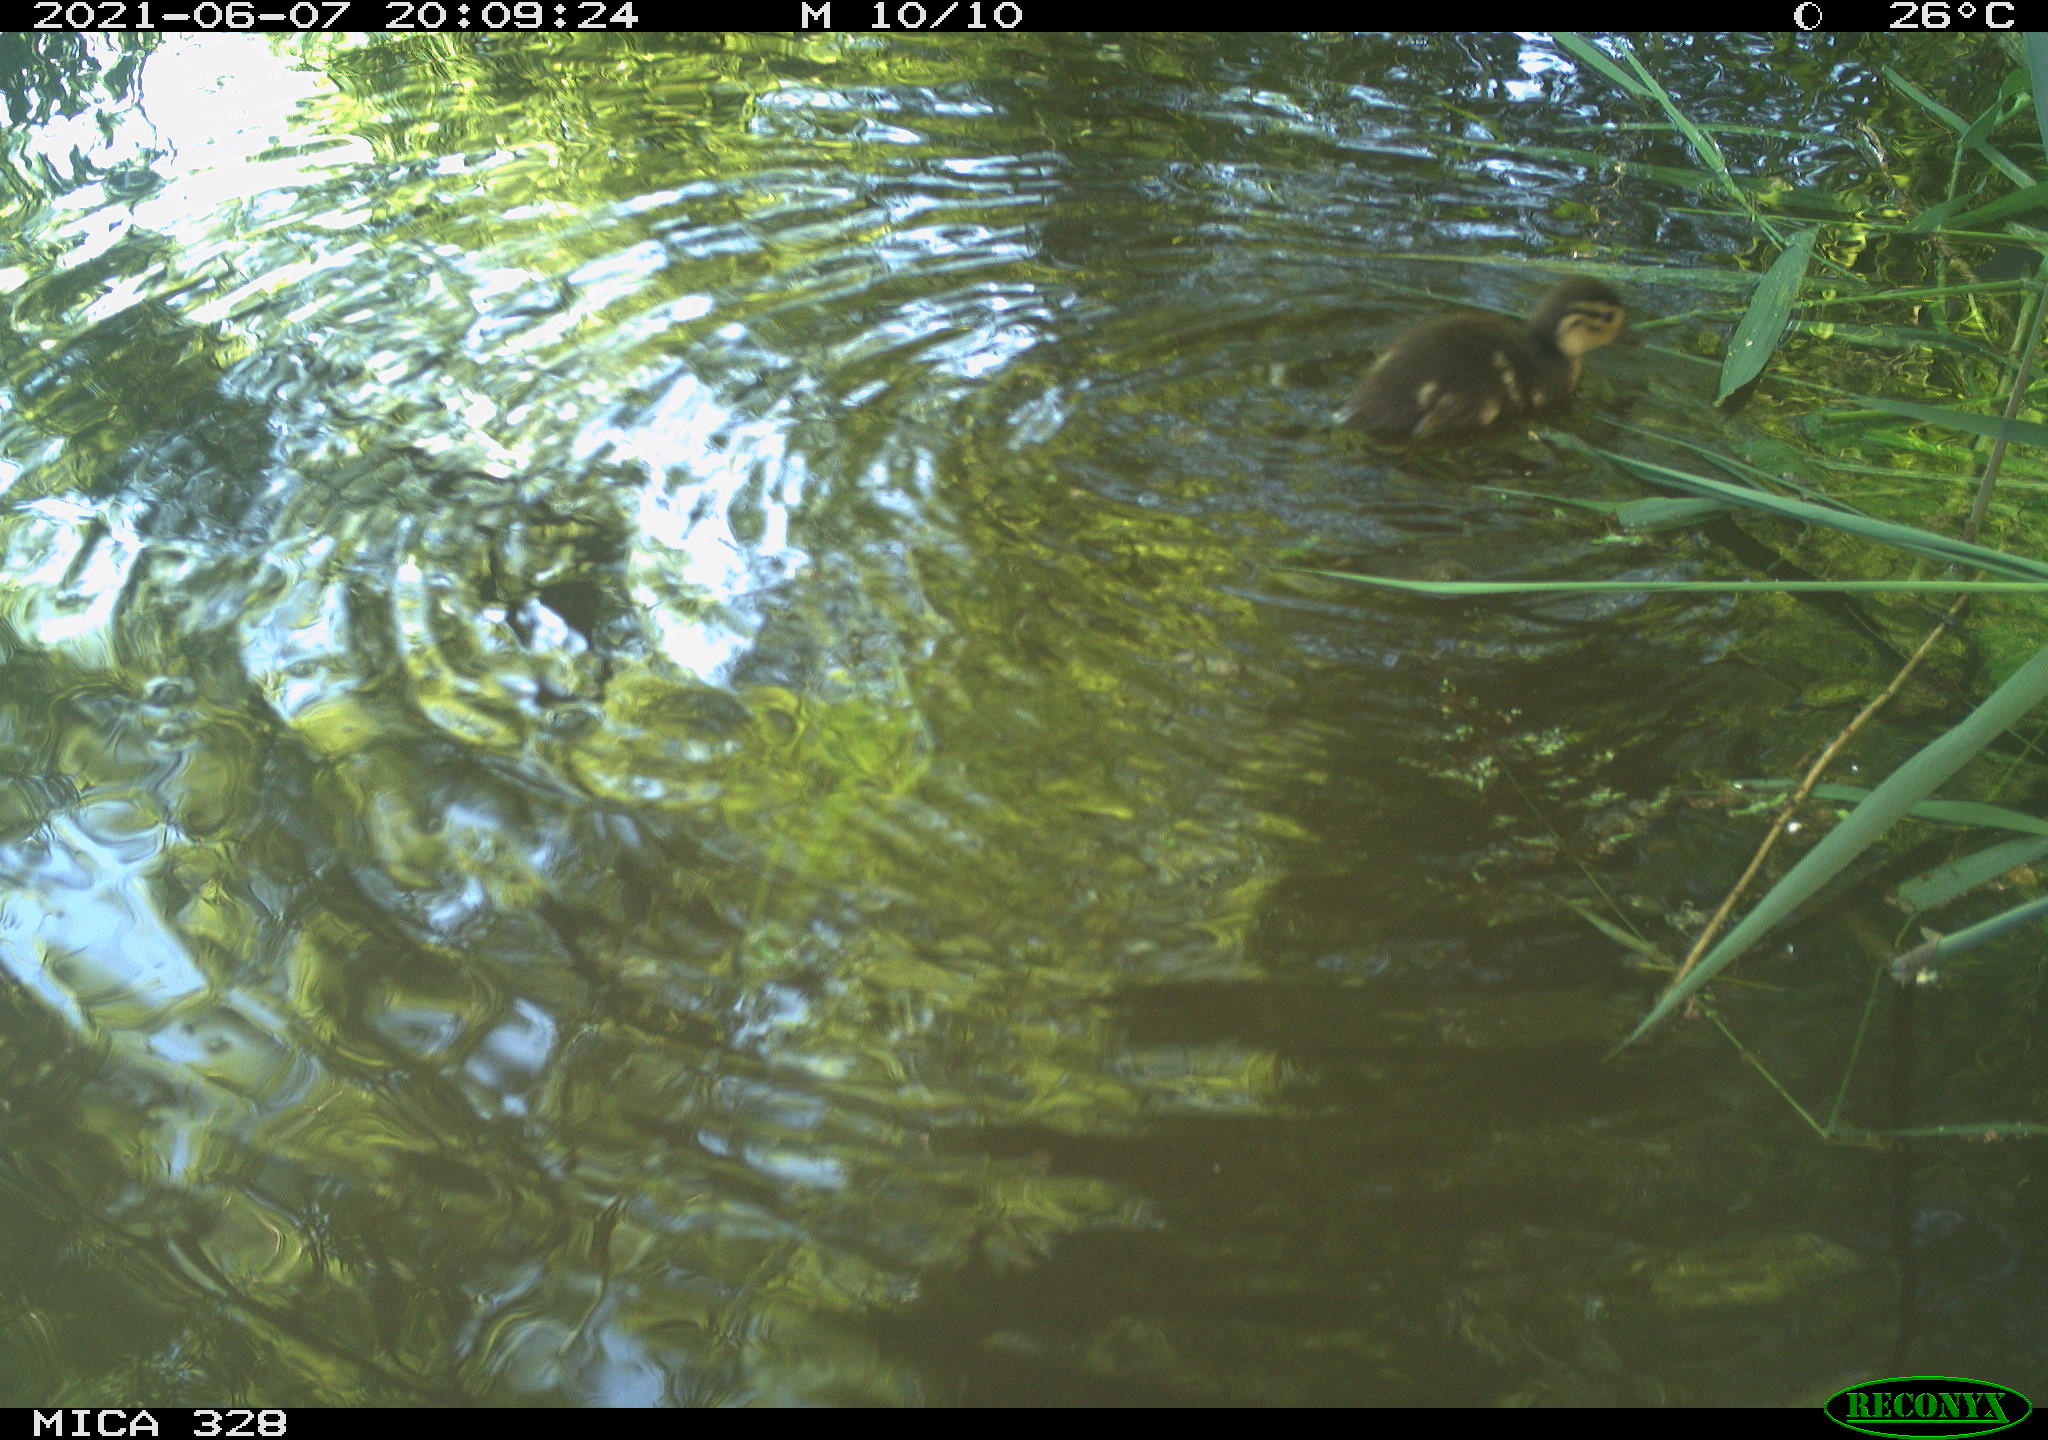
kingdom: Animalia
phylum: Chordata
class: Aves
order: Anseriformes
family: Anatidae
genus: Aix
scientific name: Aix galericulata
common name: Mandarin duck
